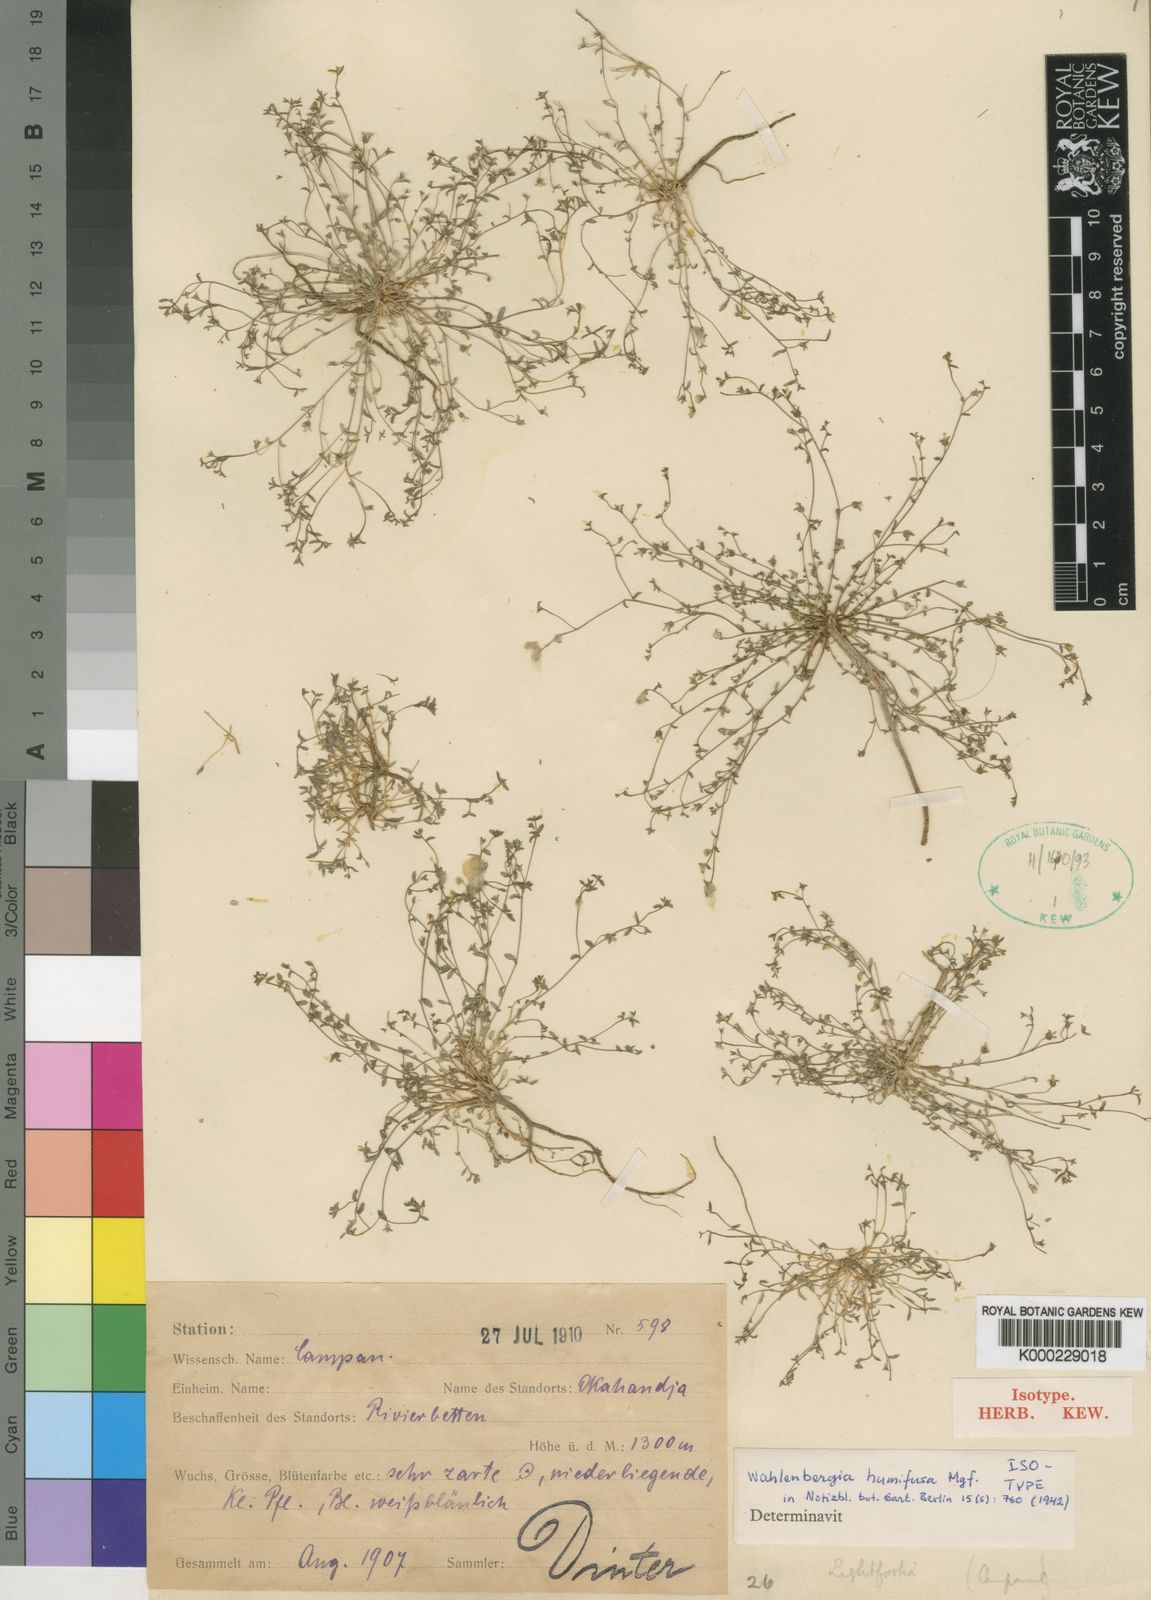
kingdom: Plantae
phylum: Tracheophyta
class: Magnoliopsida
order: Asterales
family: Campanulaceae
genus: Wahlenbergia
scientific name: Wahlenbergia campanuloides
